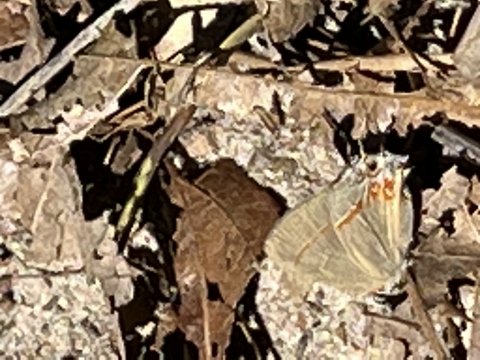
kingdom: Animalia
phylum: Arthropoda
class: Insecta
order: Lepidoptera
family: Lycaenidae
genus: Calycopis
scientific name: Calycopis isobeon
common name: Dusky-blue Groundstreak
